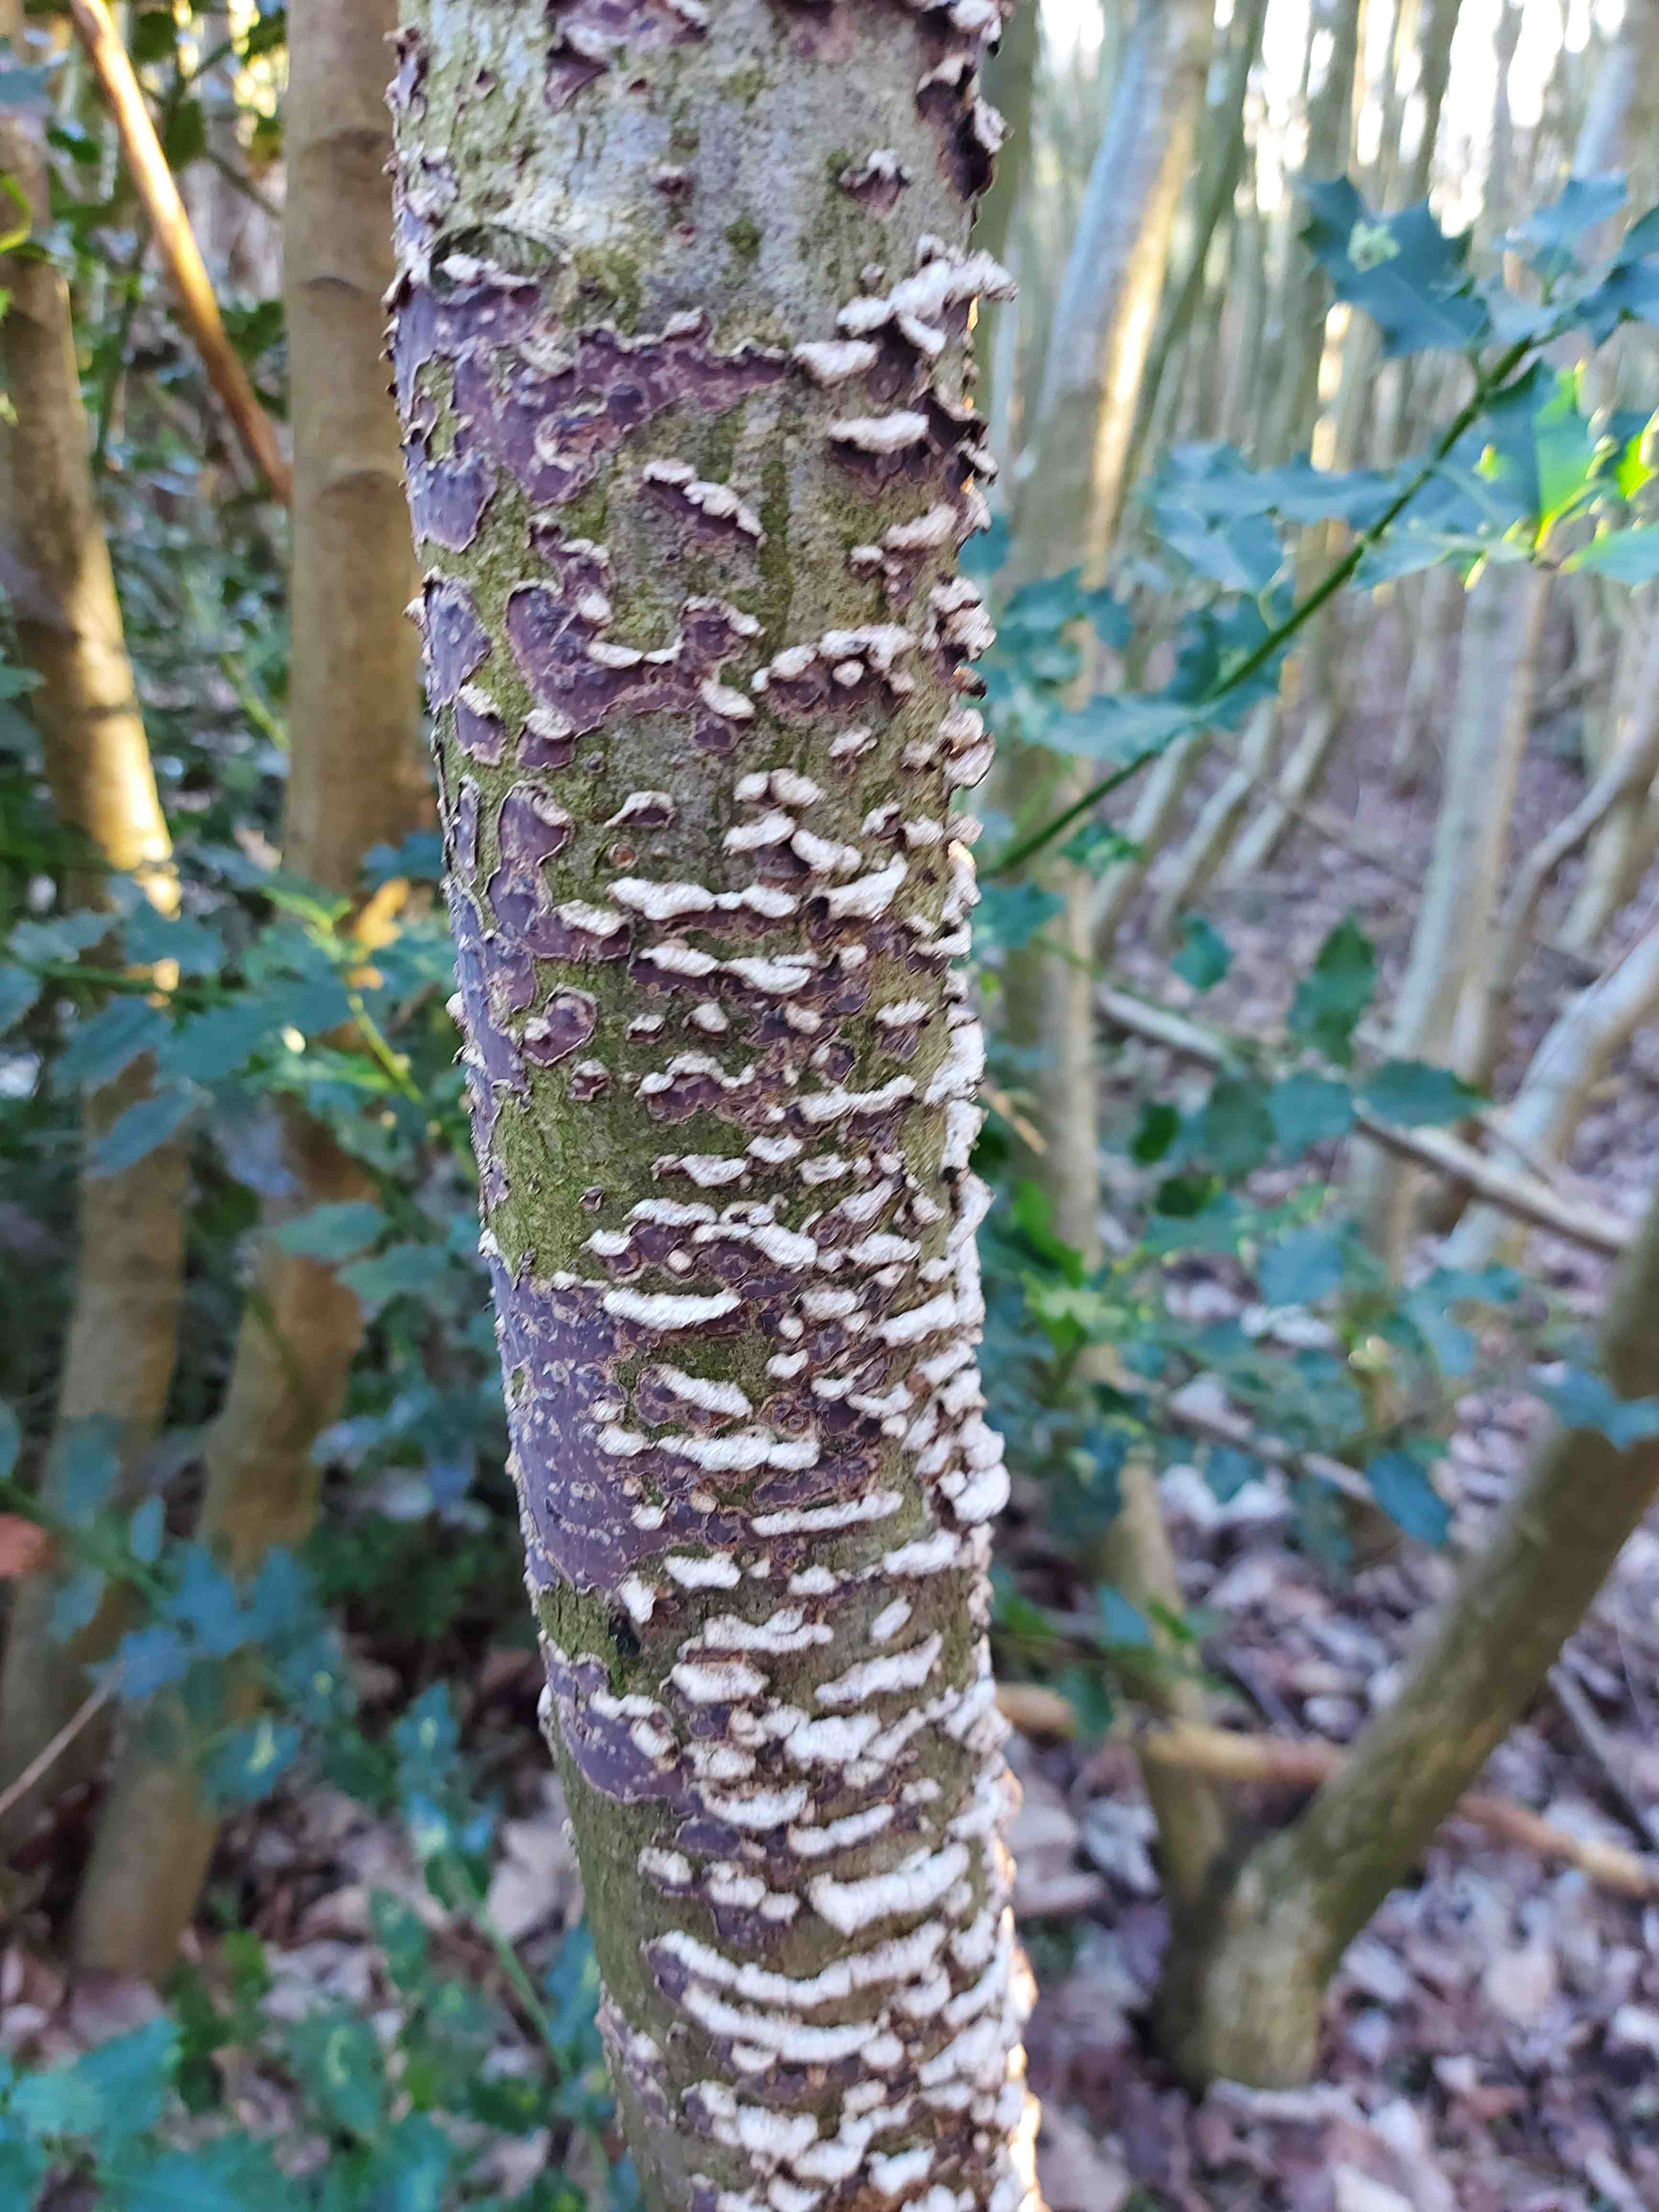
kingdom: Fungi
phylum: Basidiomycota
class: Agaricomycetes
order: Agaricales
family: Cyphellaceae
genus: Chondrostereum
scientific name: Chondrostereum purpureum
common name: purpurlædersvamp
